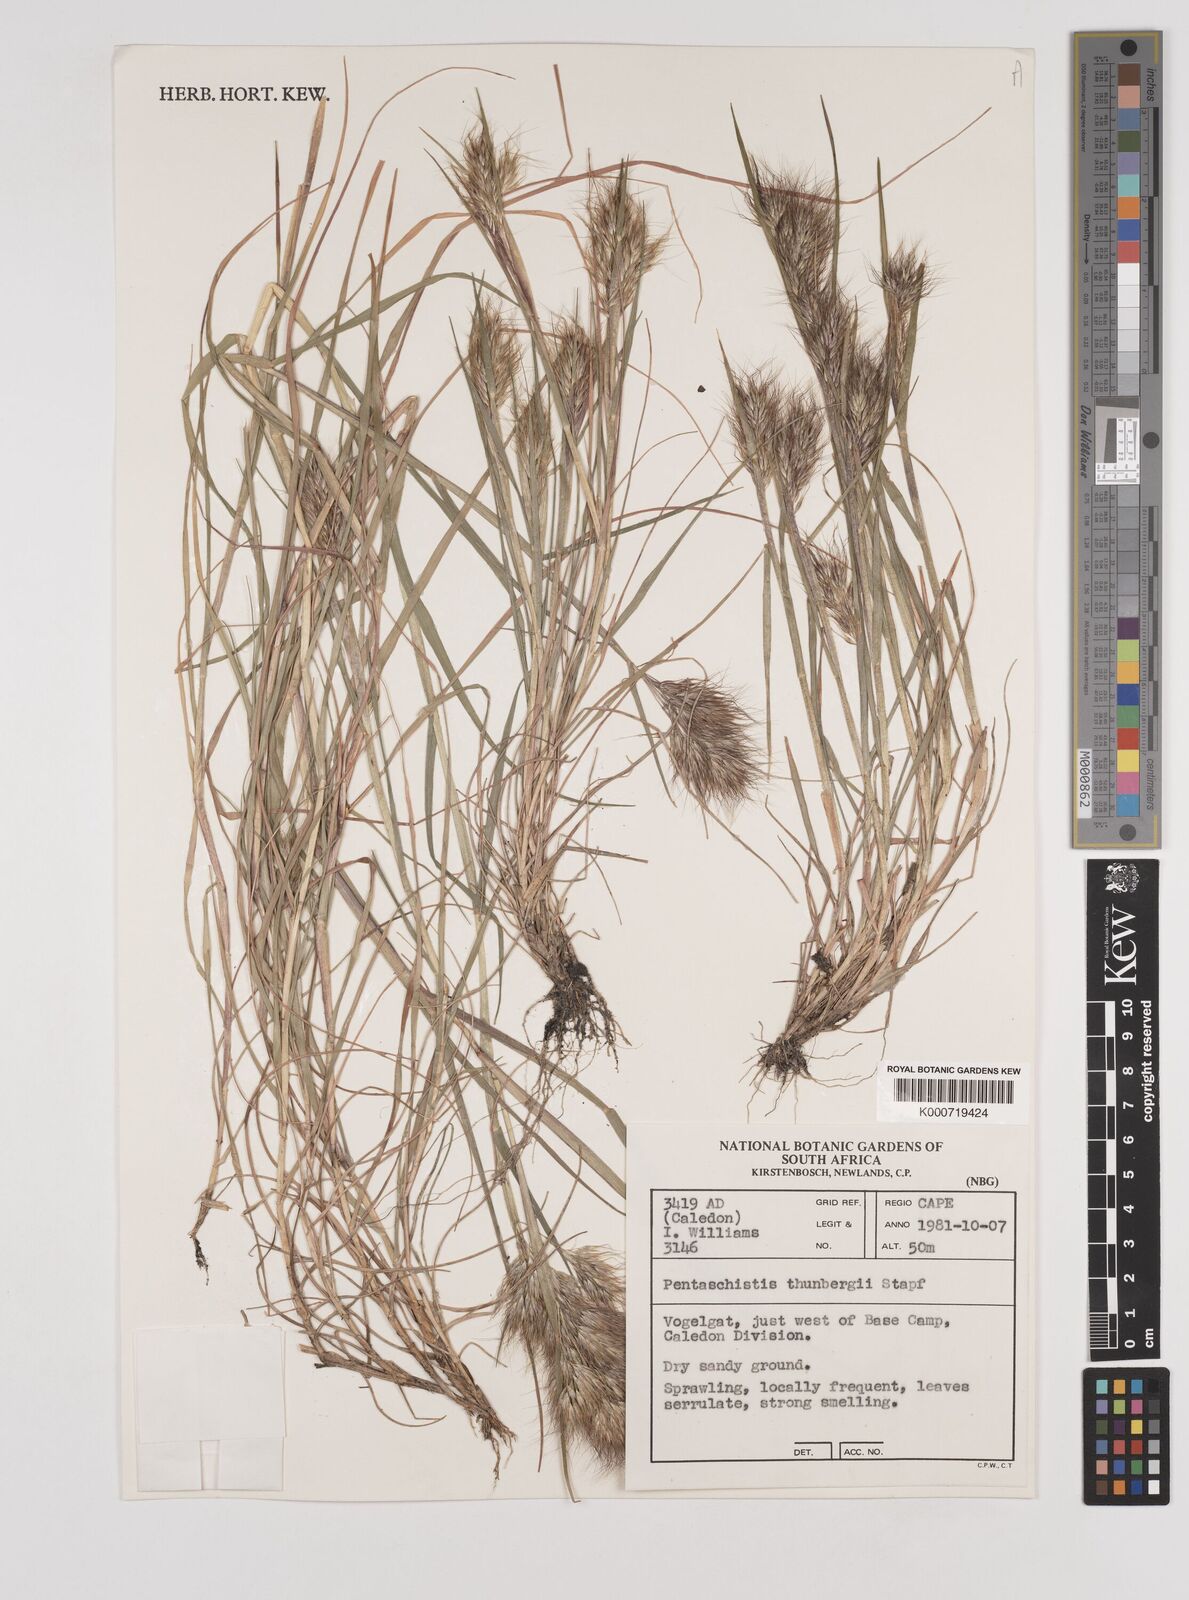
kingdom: Plantae
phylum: Tracheophyta
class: Liliopsida
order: Poales
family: Poaceae
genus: Pentameris
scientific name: Pentameris triseta
